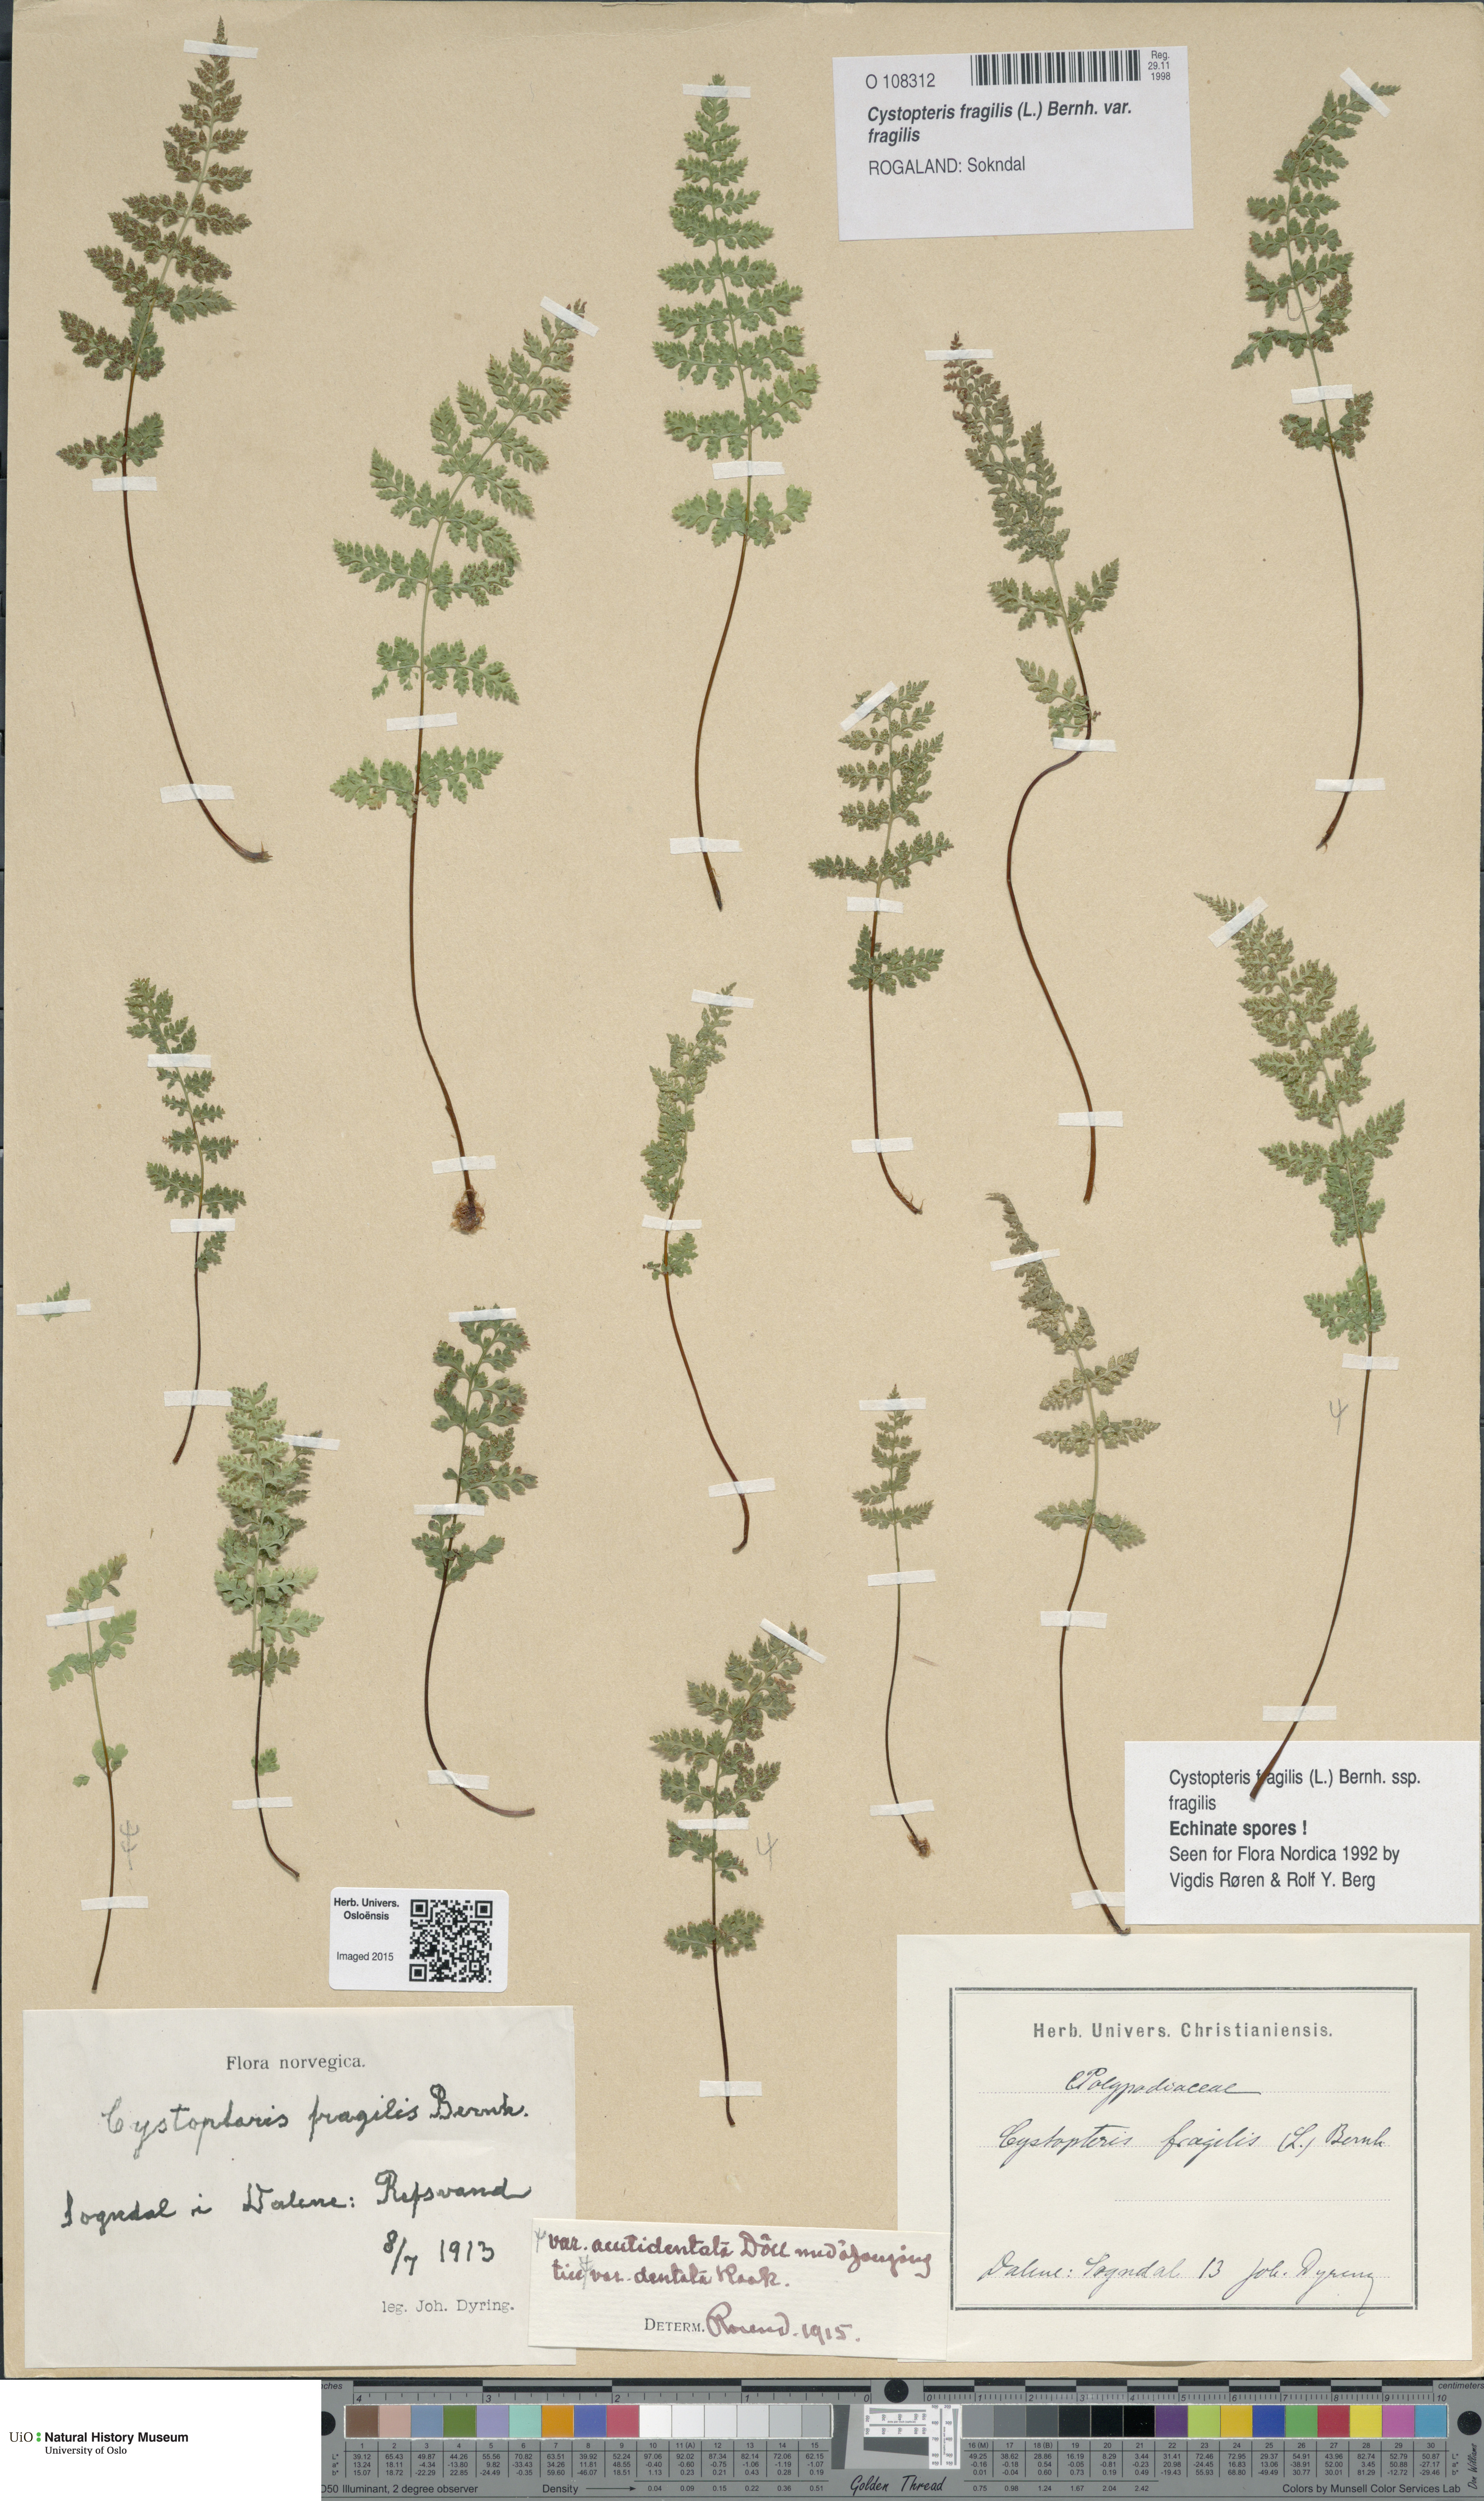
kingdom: Plantae
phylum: Tracheophyta
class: Polypodiopsida
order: Polypodiales
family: Cystopteridaceae
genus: Cystopteris
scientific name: Cystopteris fragilis
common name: Brittle bladder fern
